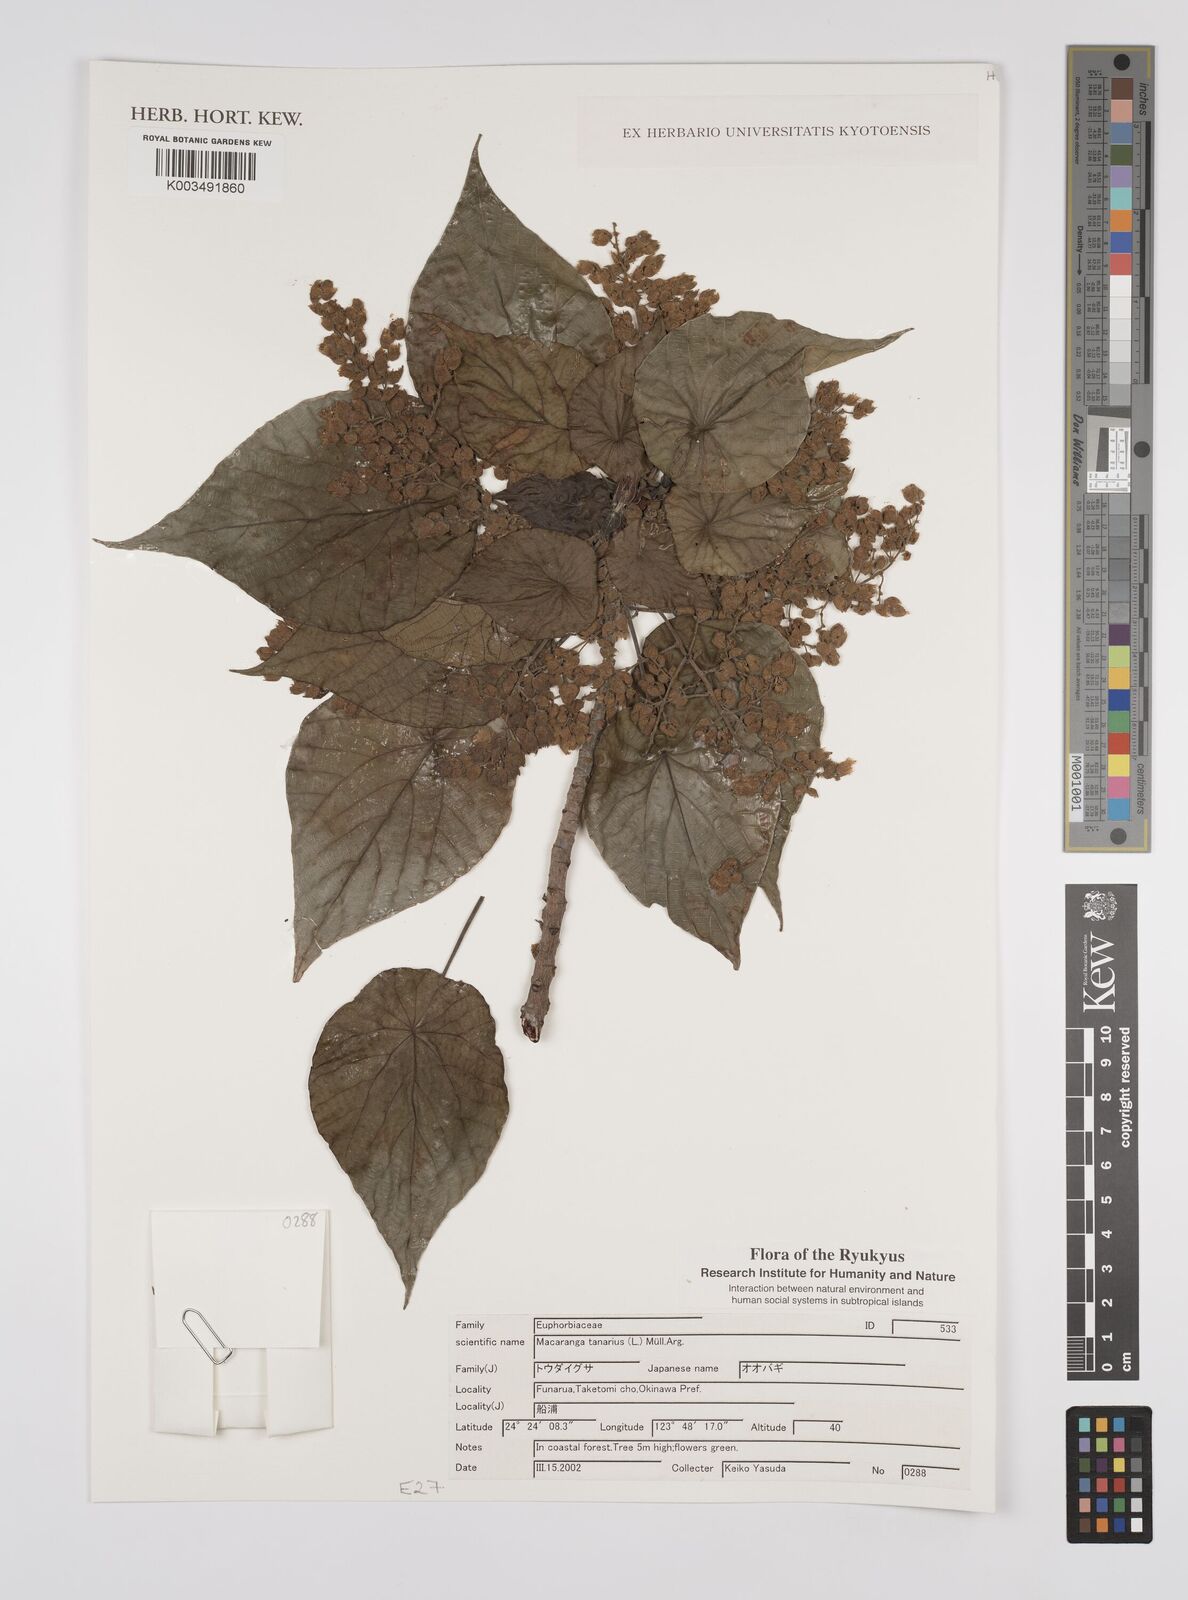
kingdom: Plantae
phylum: Tracheophyta
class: Magnoliopsida
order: Malpighiales
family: Euphorbiaceae
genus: Macaranga
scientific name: Macaranga tanarius
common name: Parasol leaf tree
